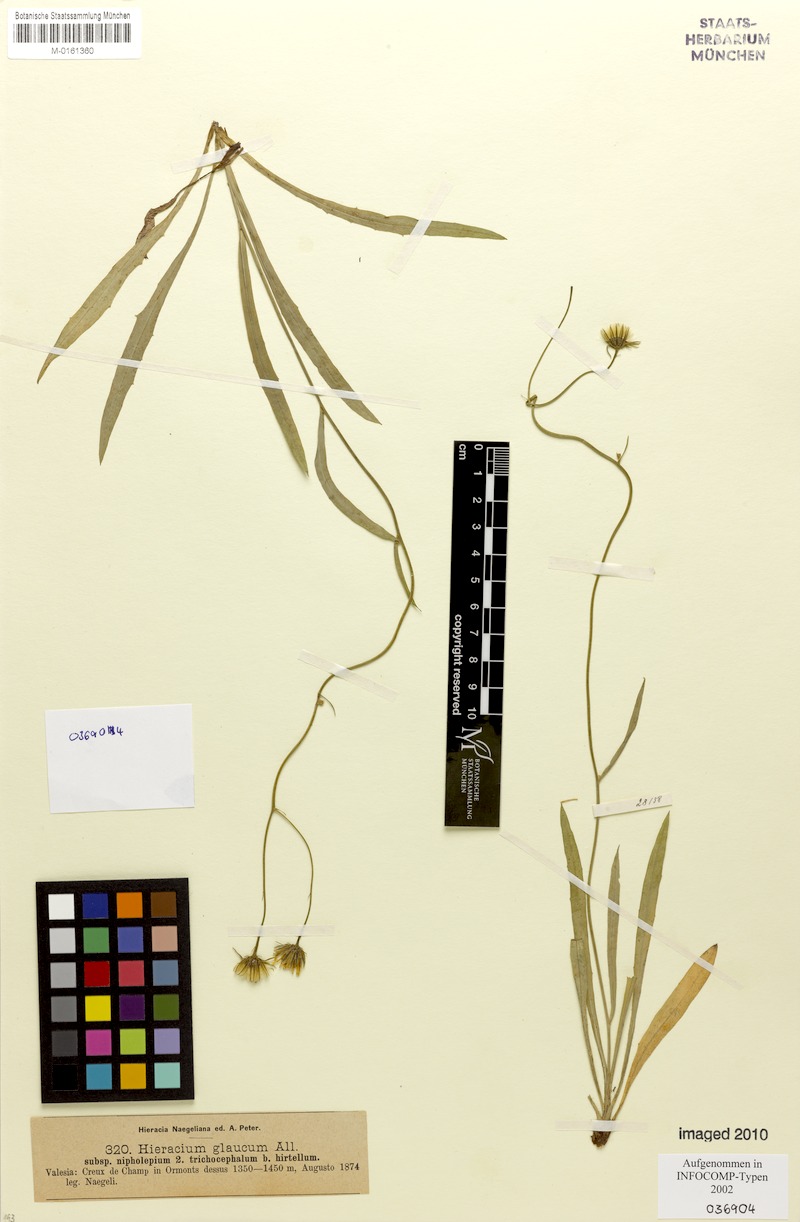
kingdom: Plantae
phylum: Tracheophyta
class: Magnoliopsida
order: Asterales
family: Asteraceae
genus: Hieracium
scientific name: Hieracium glaucum
